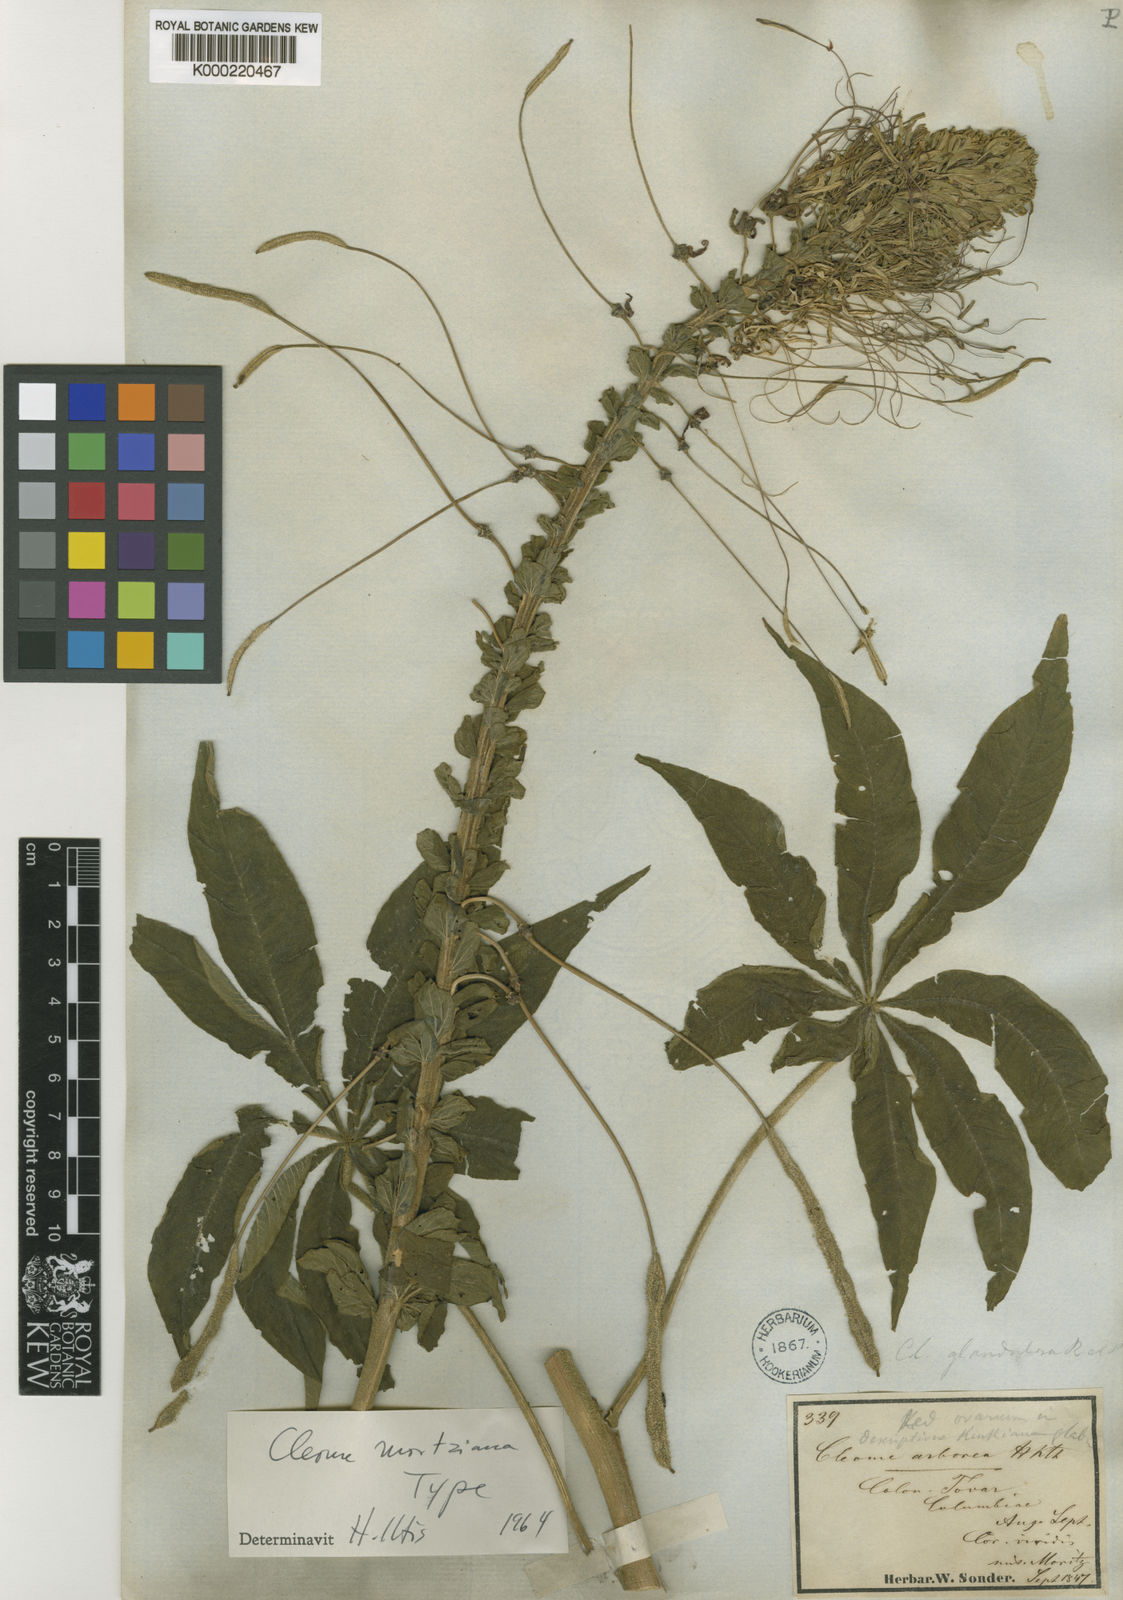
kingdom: Plantae
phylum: Tracheophyta
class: Magnoliopsida
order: Brassicales
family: Cleomaceae
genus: Andinocleome
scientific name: Andinocleome moritziana
